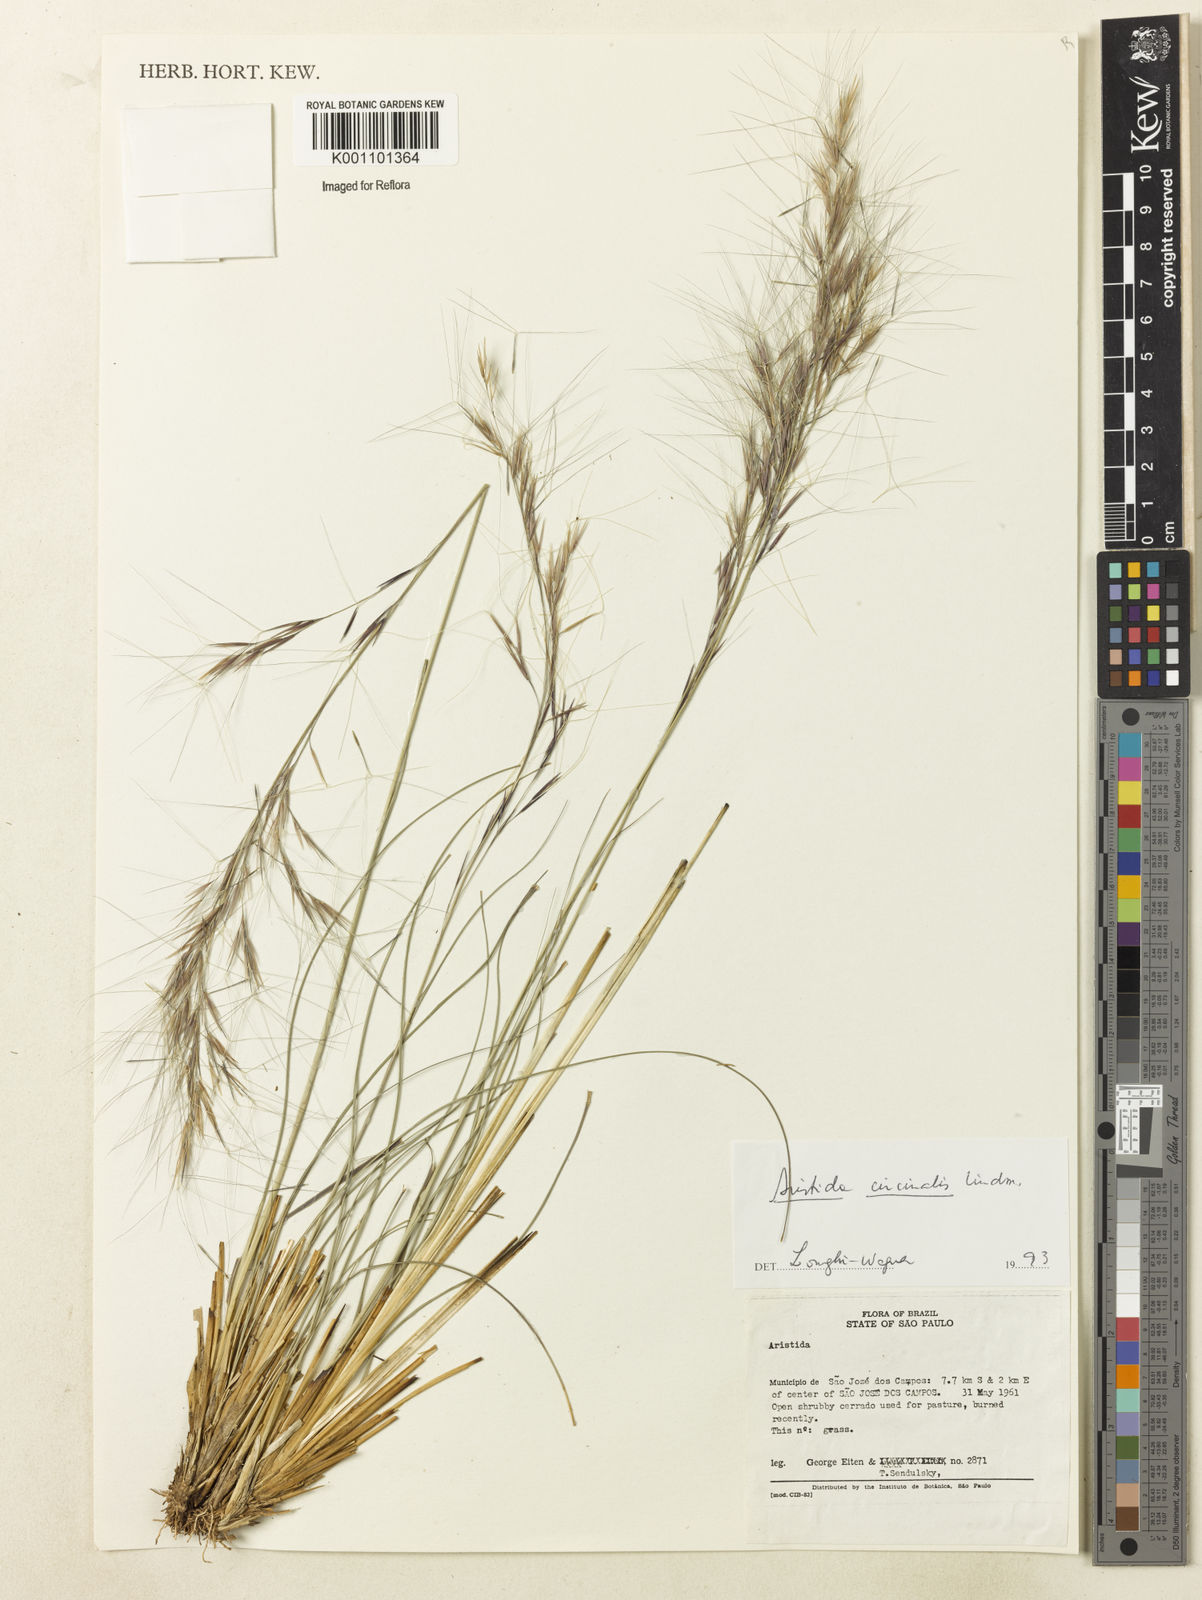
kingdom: Plantae
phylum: Tracheophyta
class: Liliopsida
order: Poales
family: Poaceae
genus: Aristida
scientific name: Aristida circinalis
